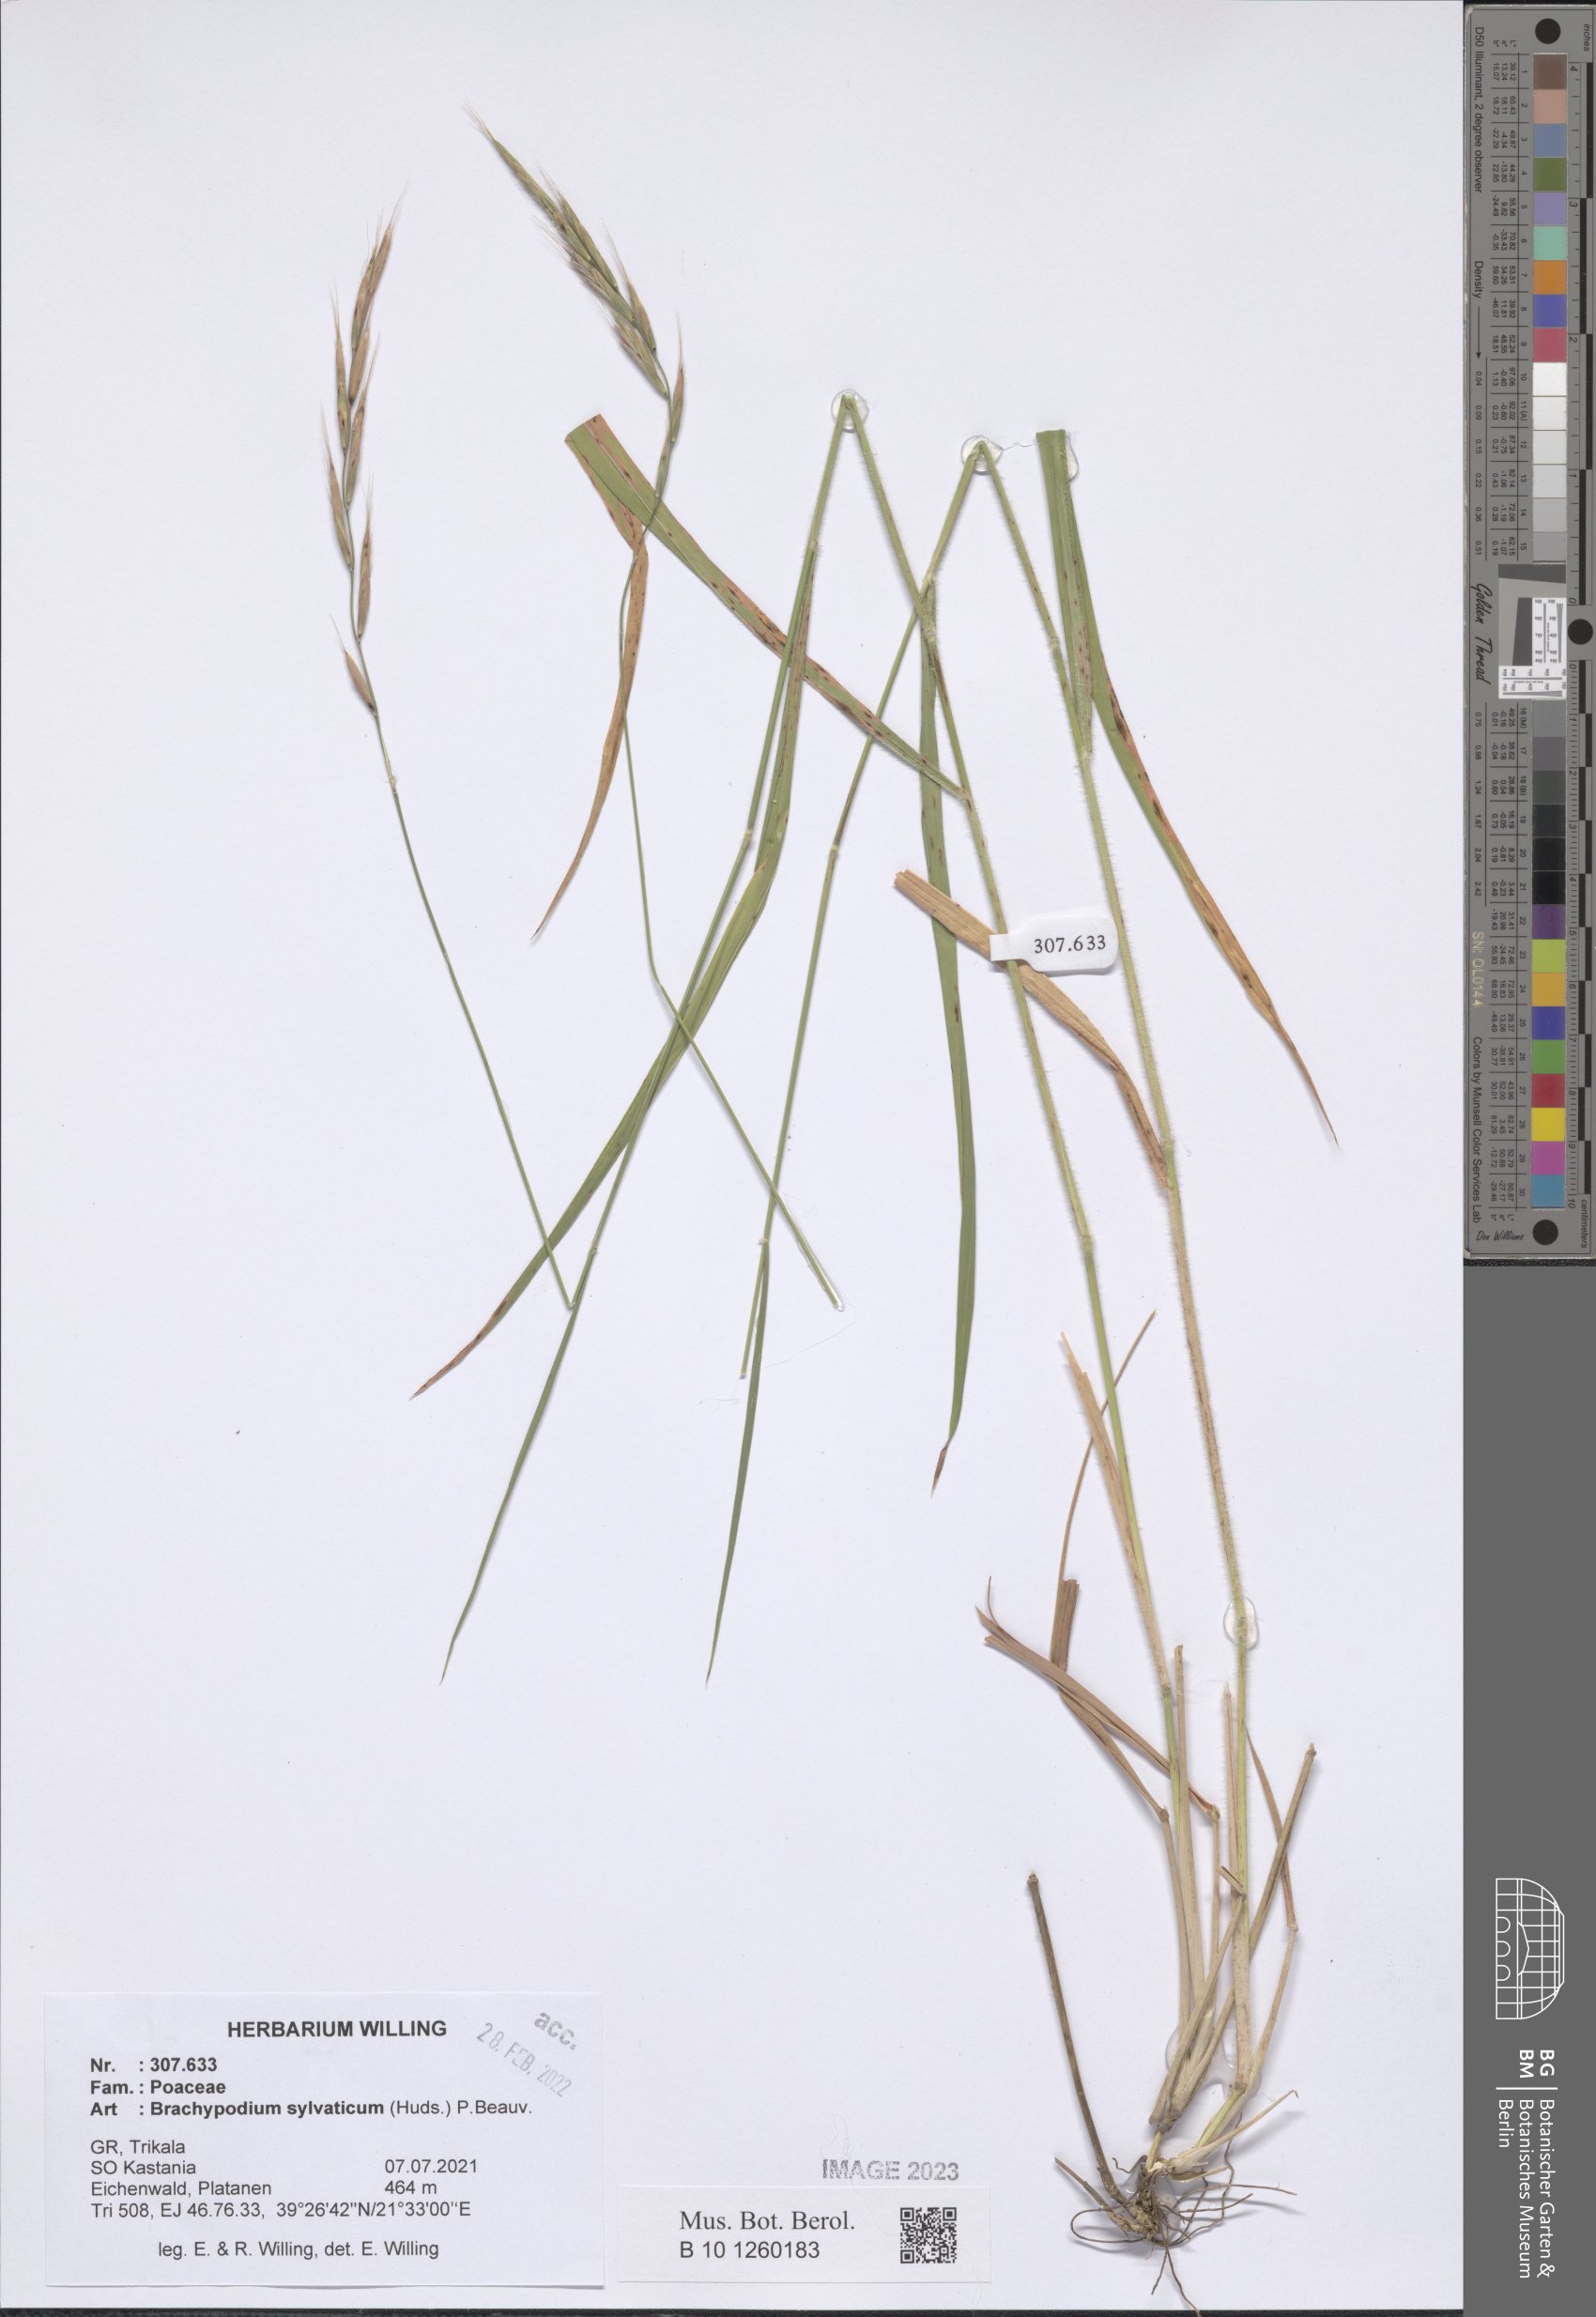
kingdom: Plantae
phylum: Tracheophyta
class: Liliopsida
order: Poales
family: Poaceae
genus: Brachypodium
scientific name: Brachypodium sylvaticum
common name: False-brome
